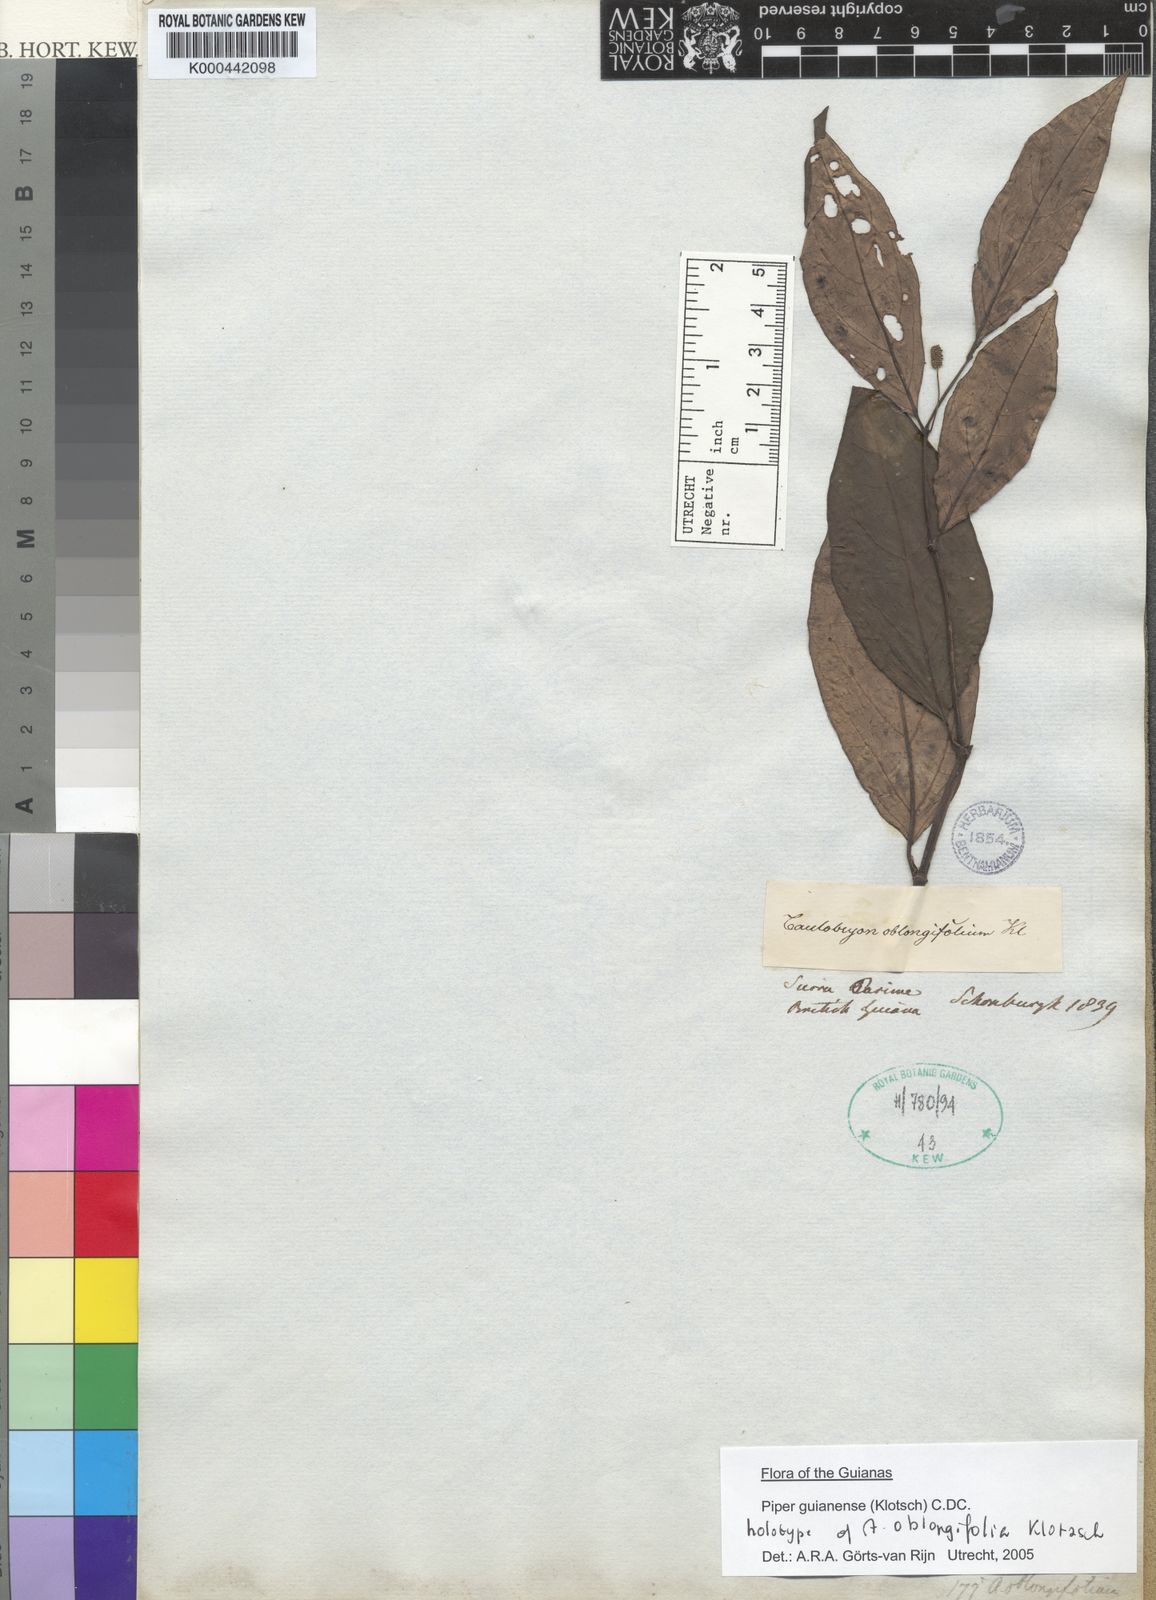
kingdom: Plantae
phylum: Tracheophyta
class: Magnoliopsida
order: Piperales
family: Piperaceae
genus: Piper
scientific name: Piper guianense
